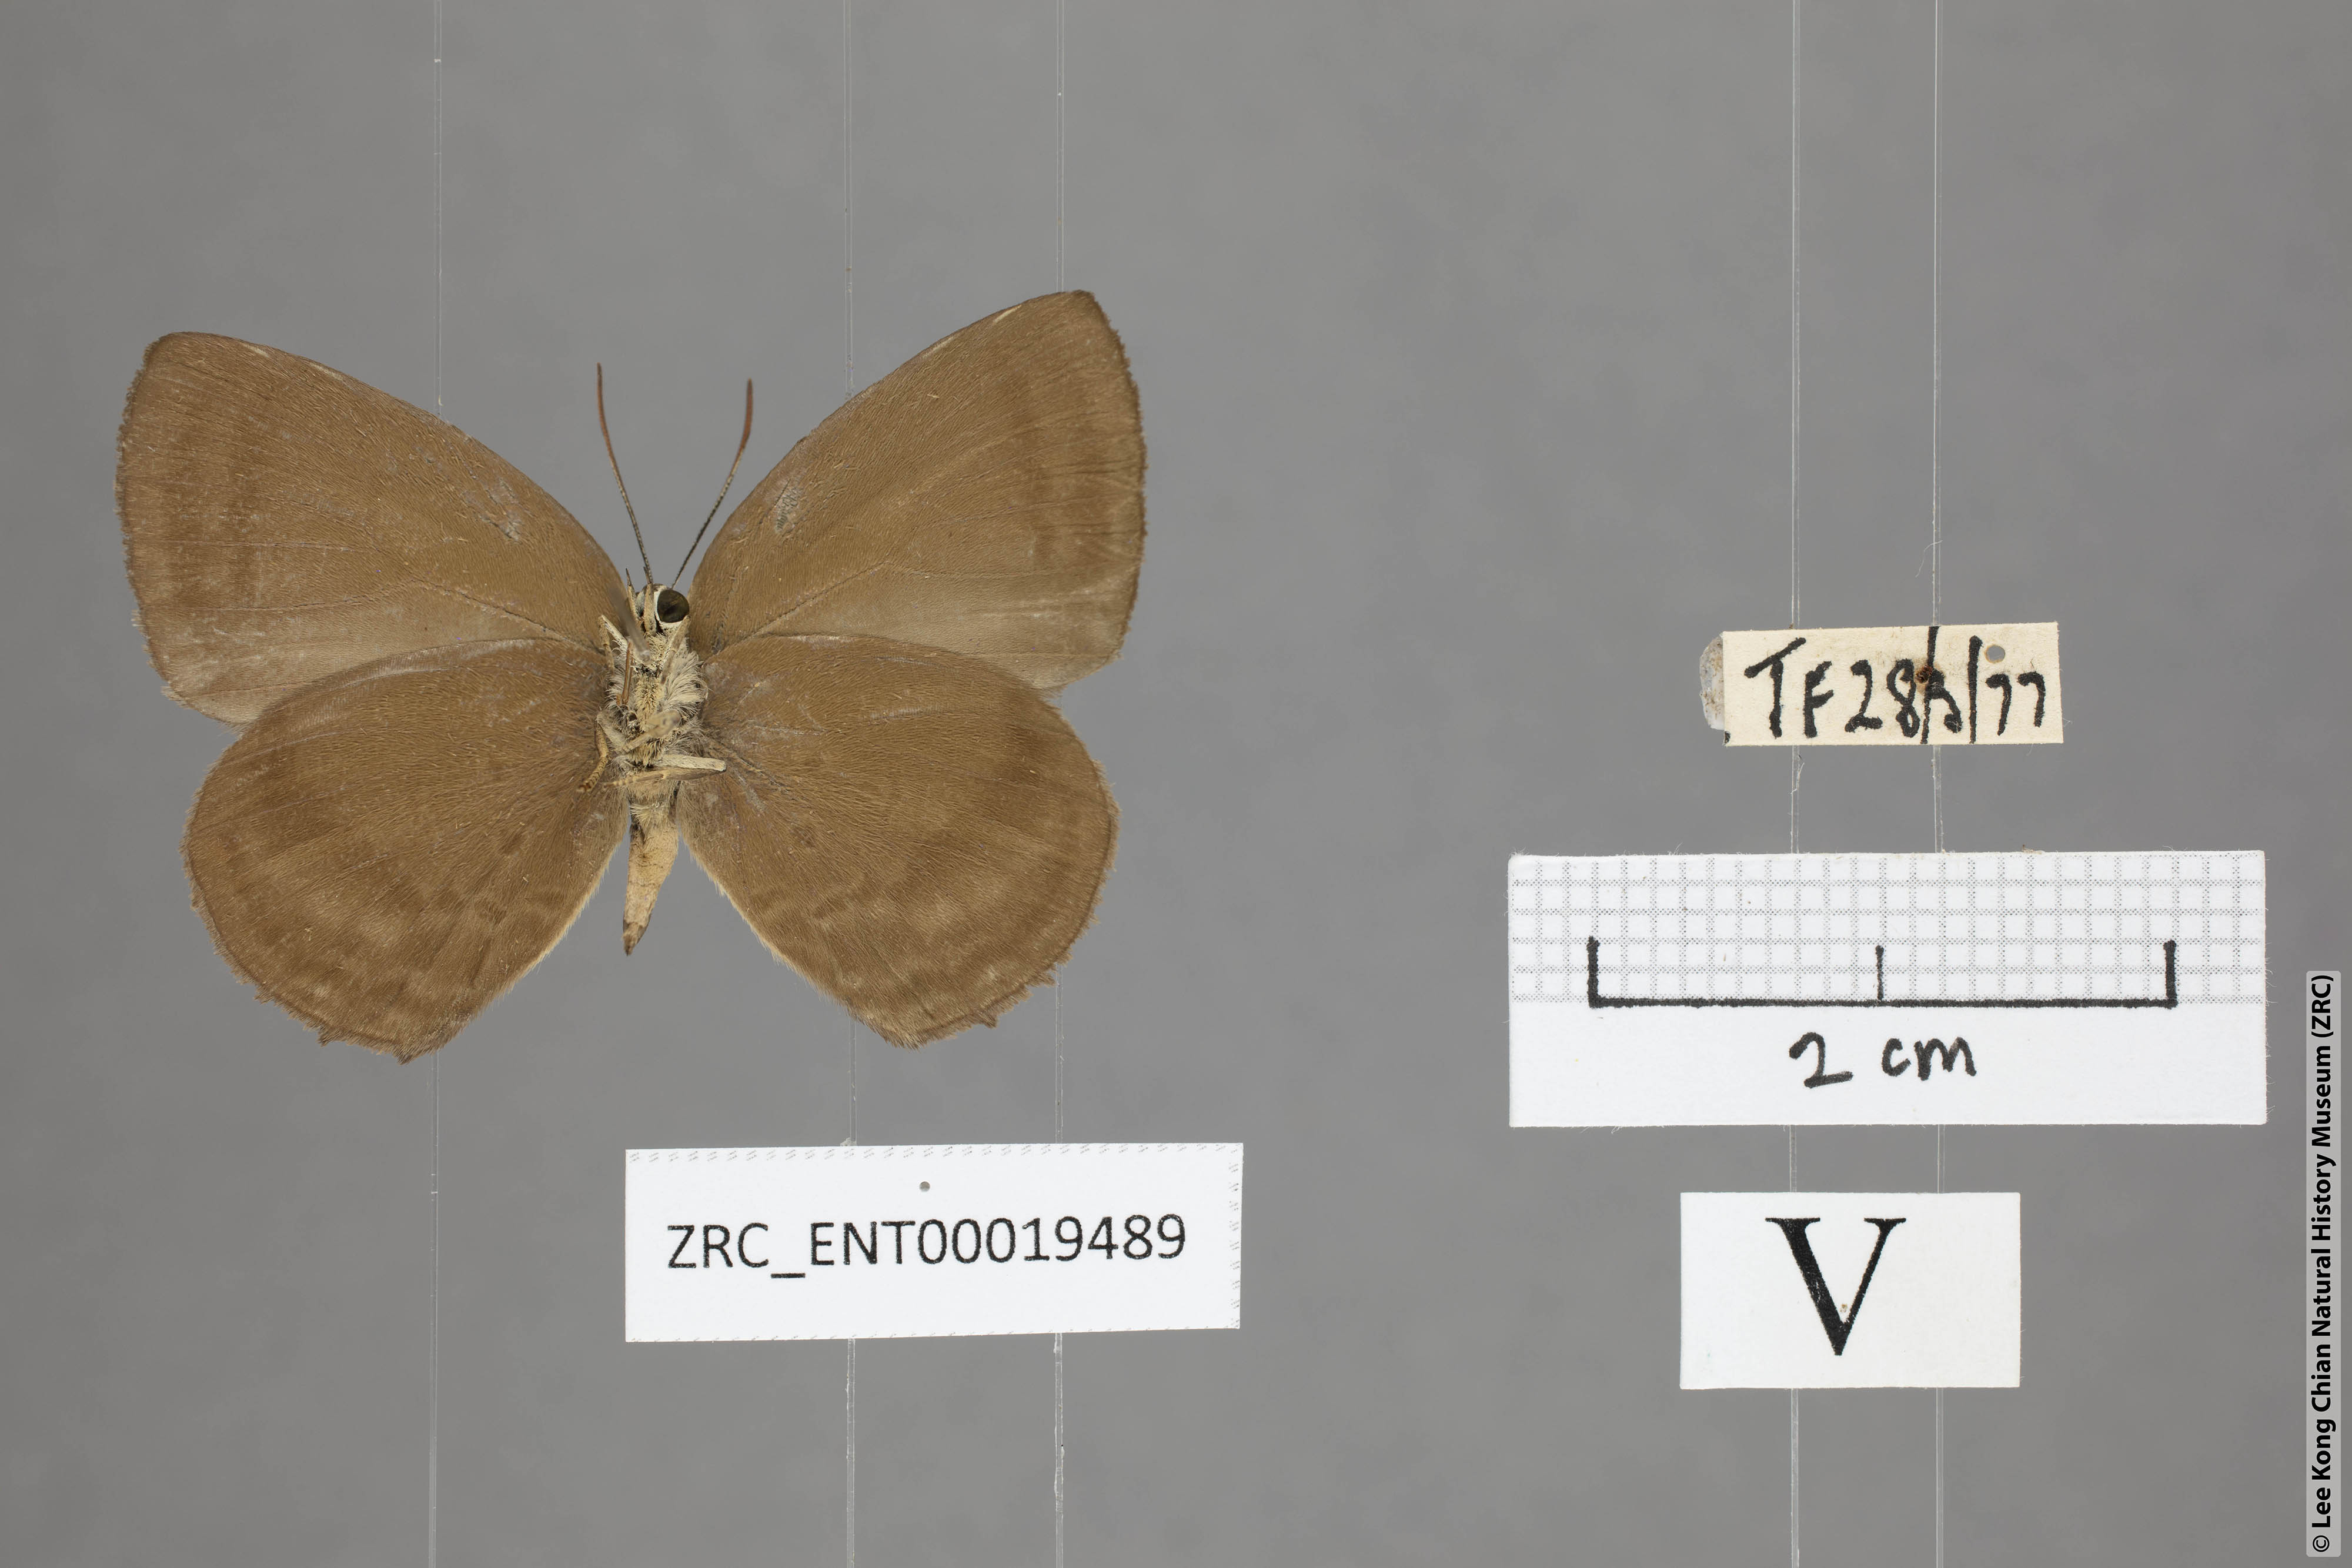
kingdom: Animalia
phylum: Arthropoda
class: Insecta
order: Lepidoptera
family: Lycaenidae
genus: Arhopala
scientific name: Arhopala fulla
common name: Spotless oakblue
